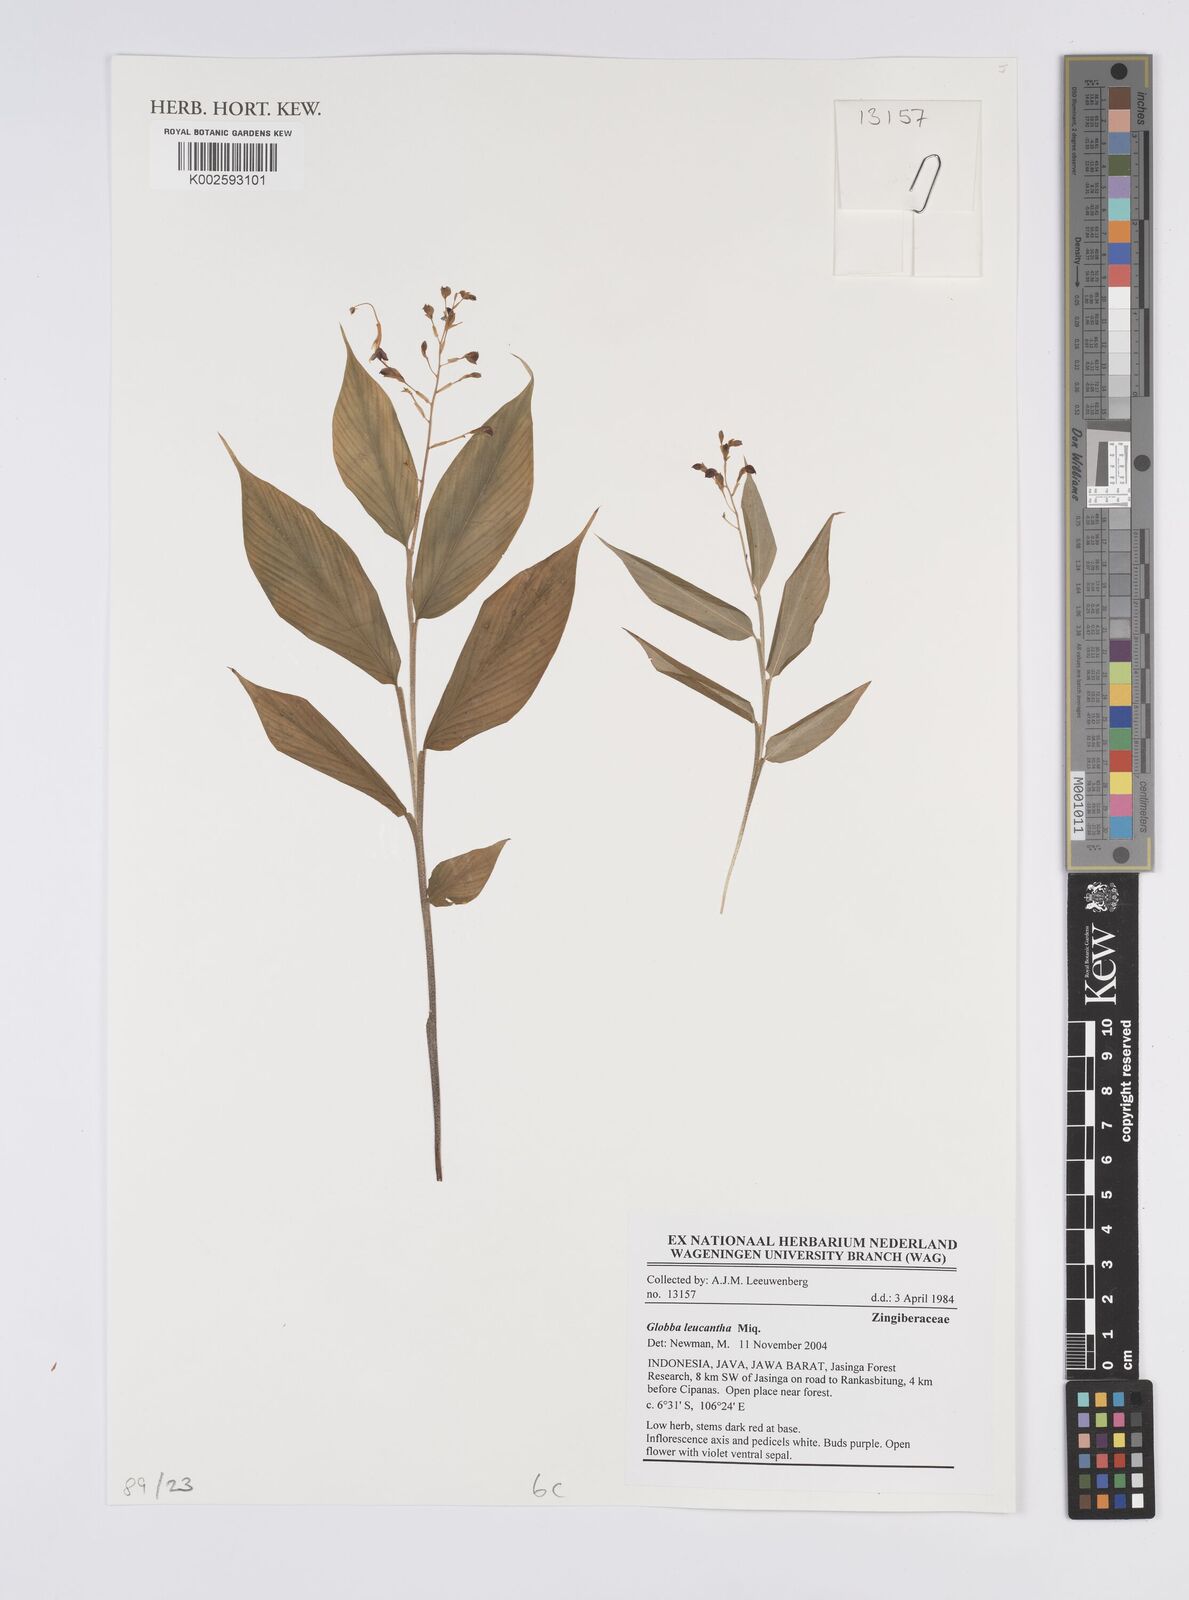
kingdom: Plantae
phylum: Tracheophyta
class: Liliopsida
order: Zingiberales
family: Zingiberaceae
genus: Globba
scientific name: Globba leucantha
